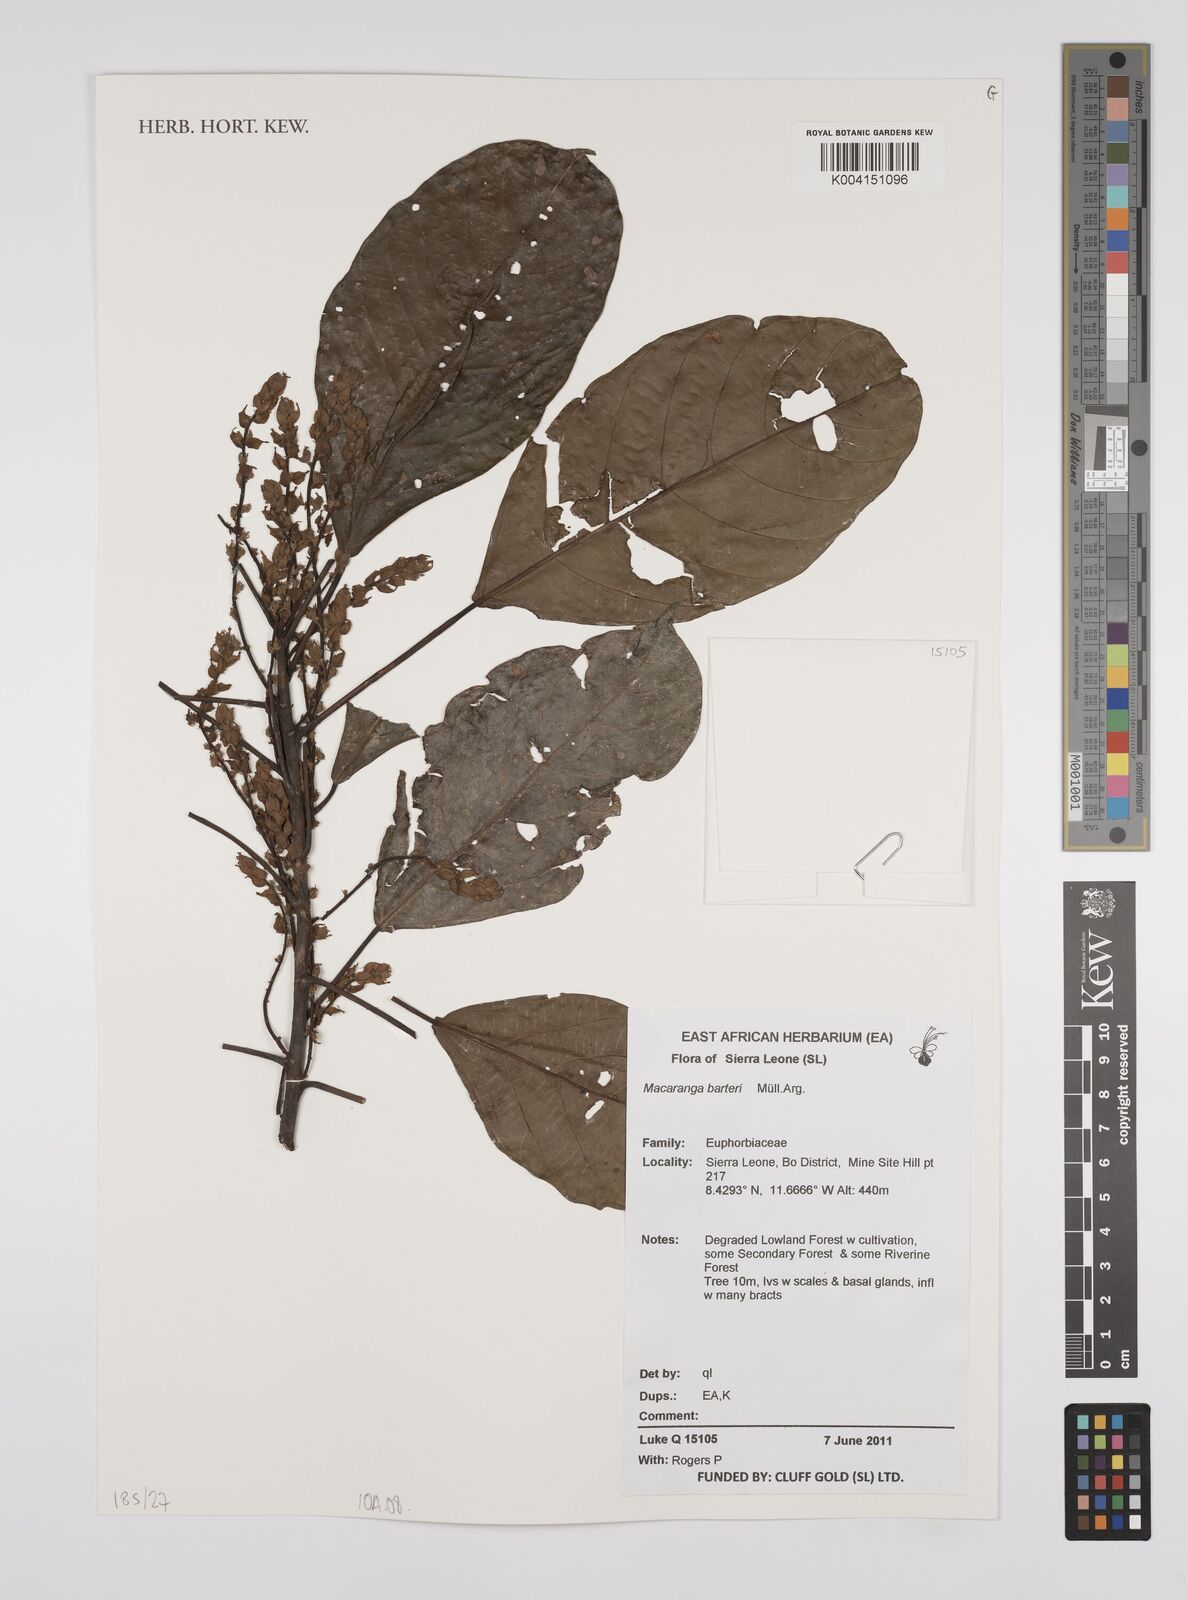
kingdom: Plantae
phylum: Tracheophyta
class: Magnoliopsida
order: Malpighiales
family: Euphorbiaceae
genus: Macaranga
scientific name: Macaranga barteri
